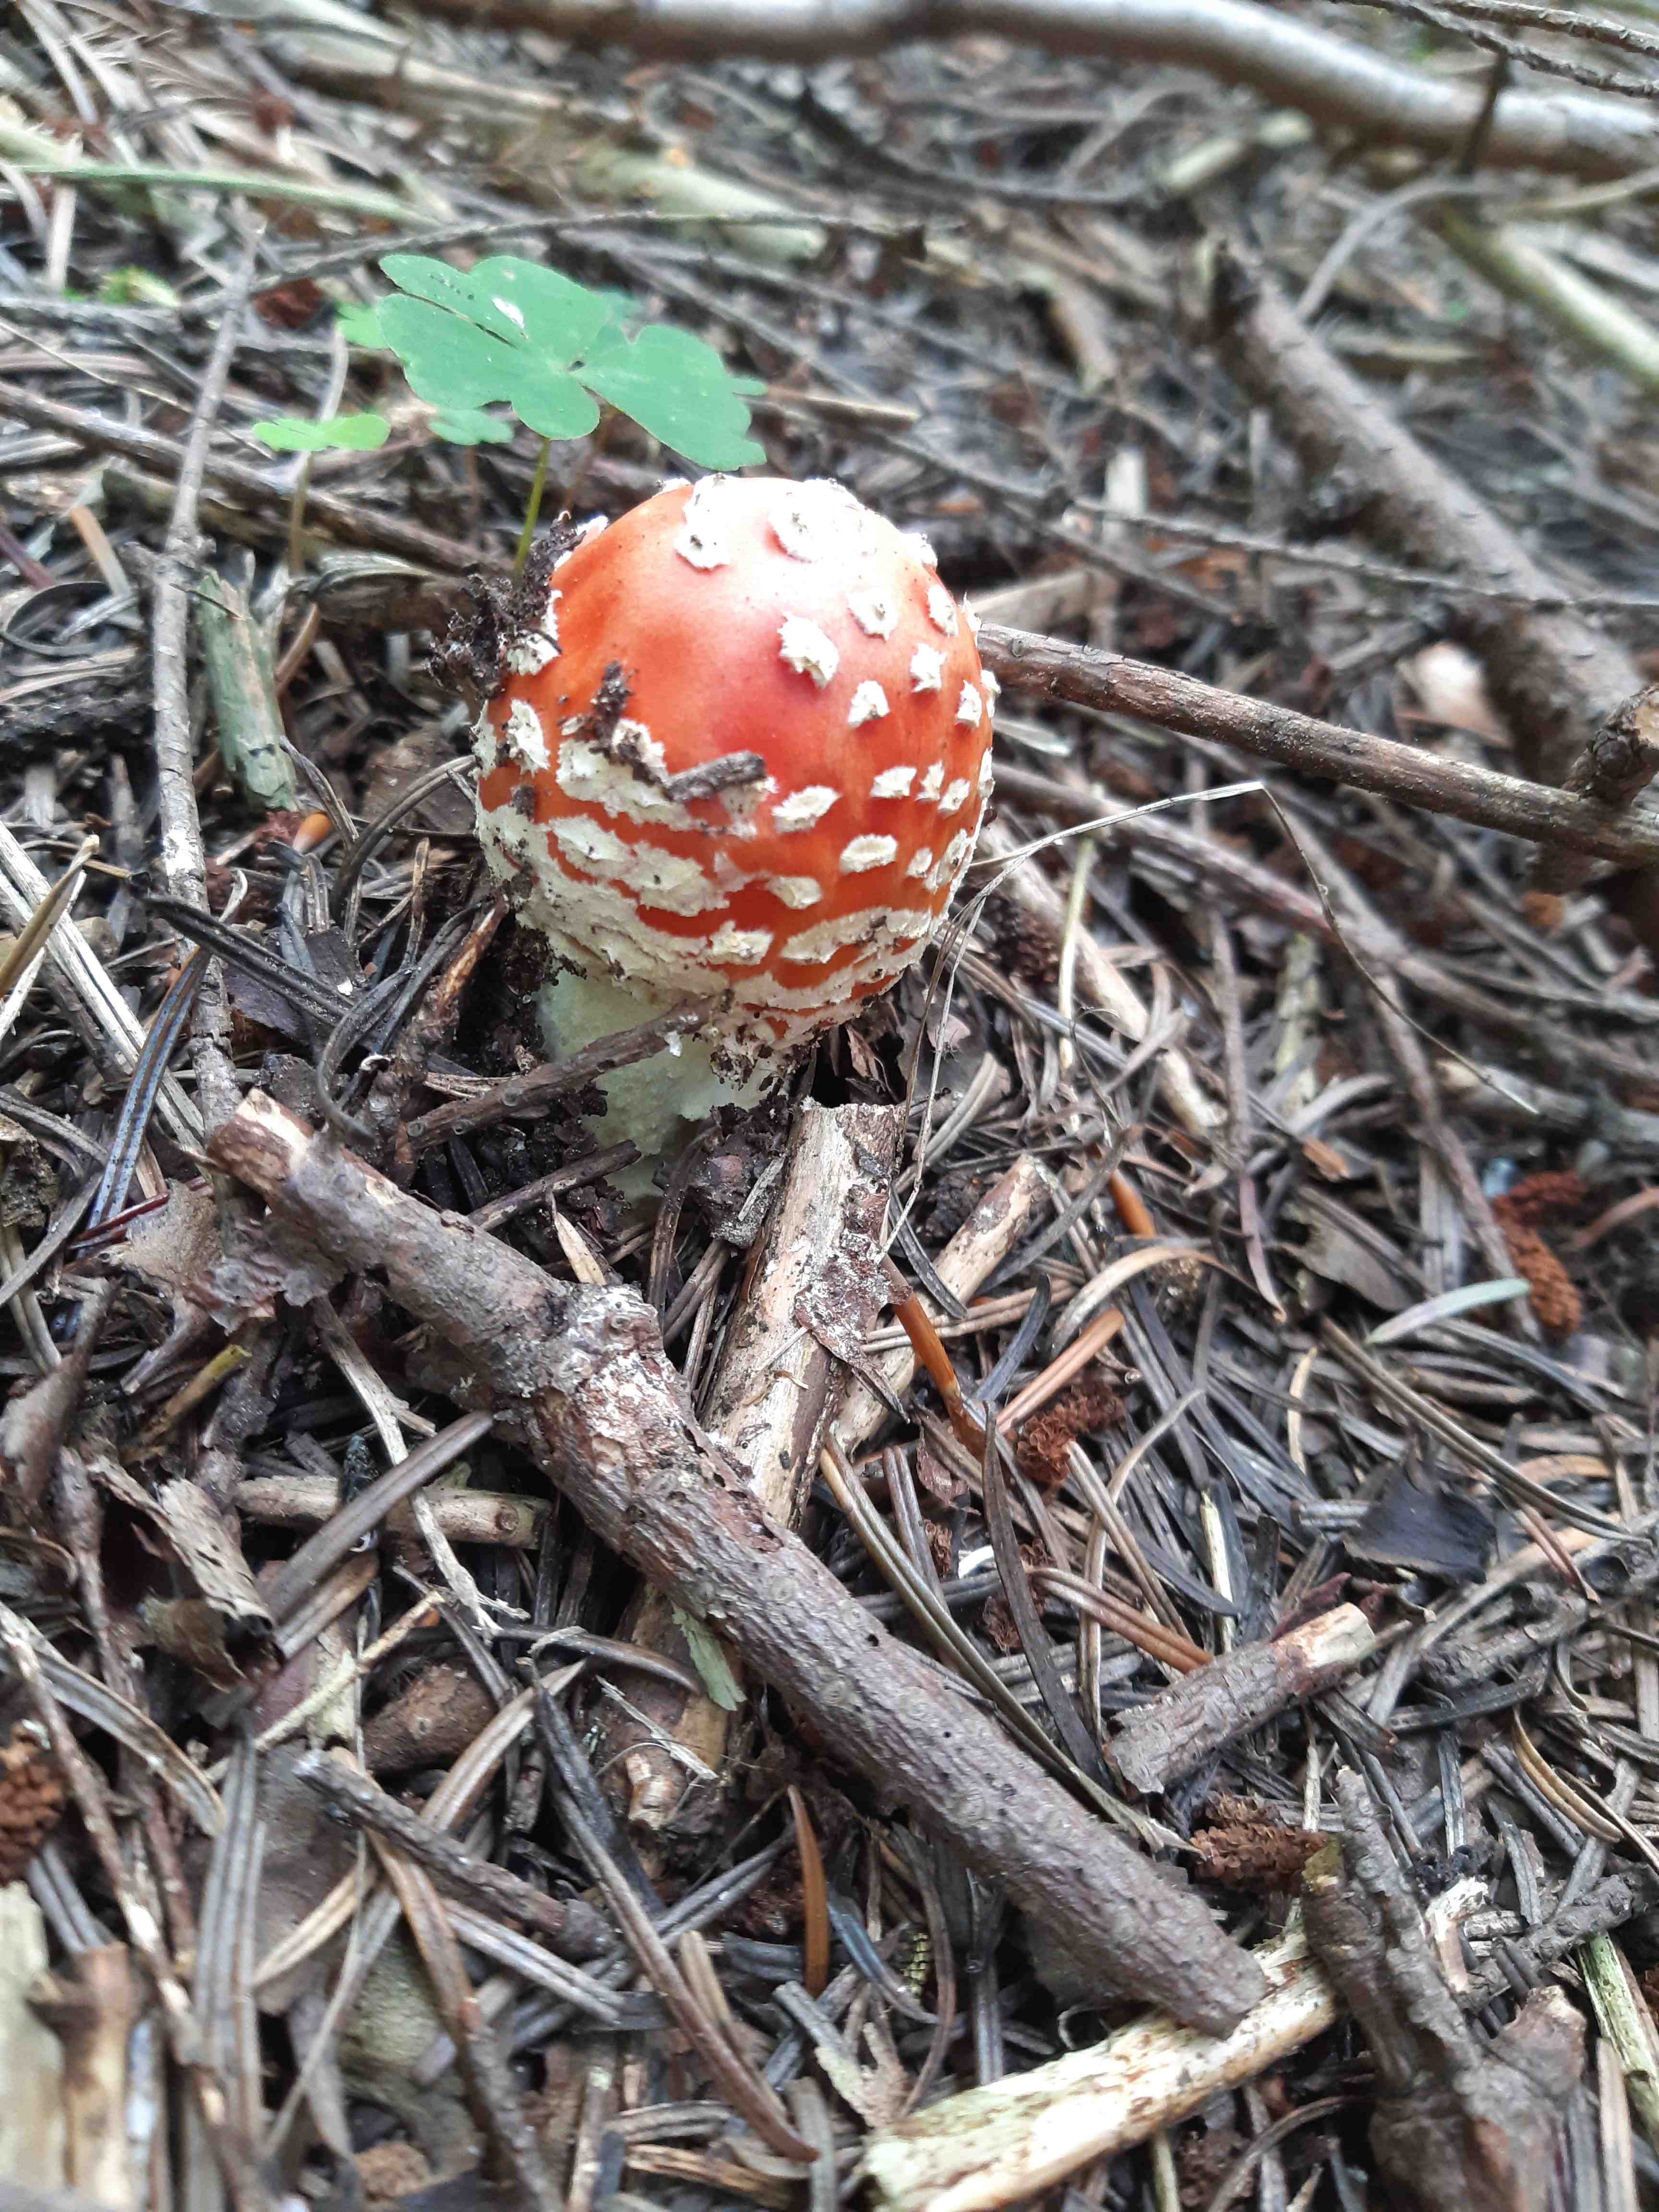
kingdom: Fungi
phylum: Basidiomycota
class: Agaricomycetes
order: Agaricales
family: Amanitaceae
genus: Amanita
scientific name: Amanita muscaria
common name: rød fluesvamp
